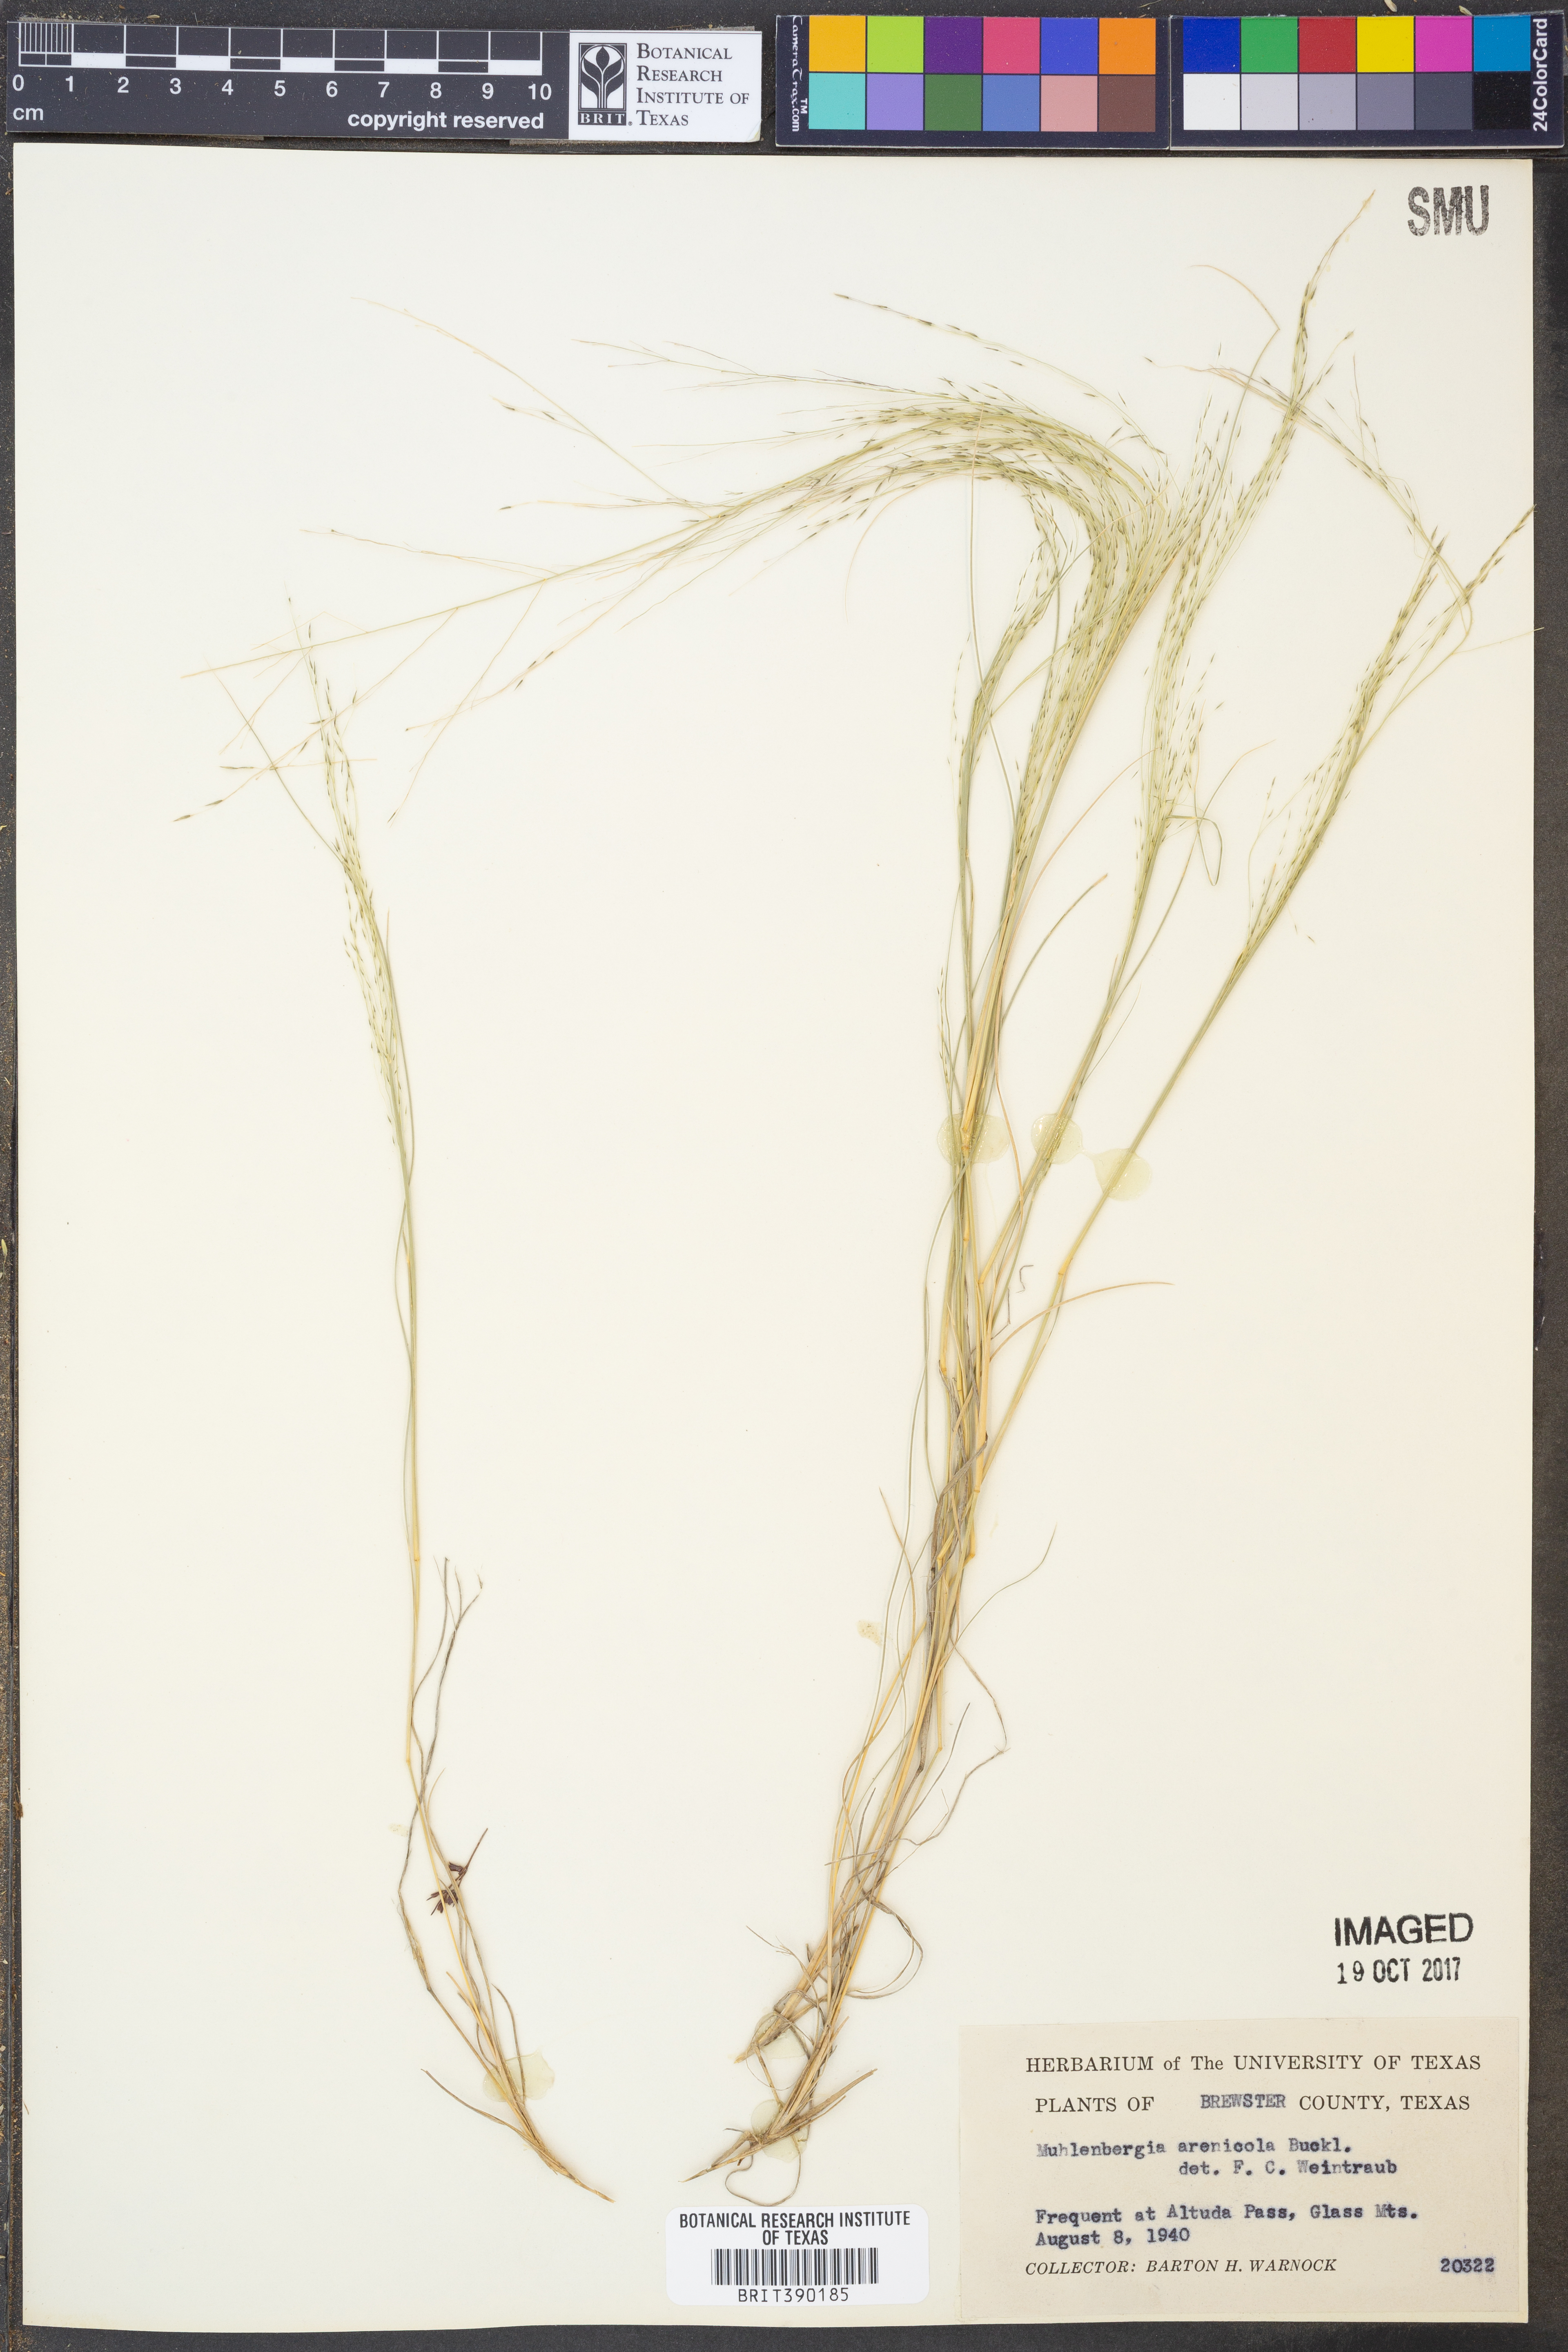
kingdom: Plantae
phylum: Tracheophyta
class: Liliopsida
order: Poales
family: Poaceae
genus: Muhlenbergia
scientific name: Muhlenbergia arenicola
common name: Sand muhly
